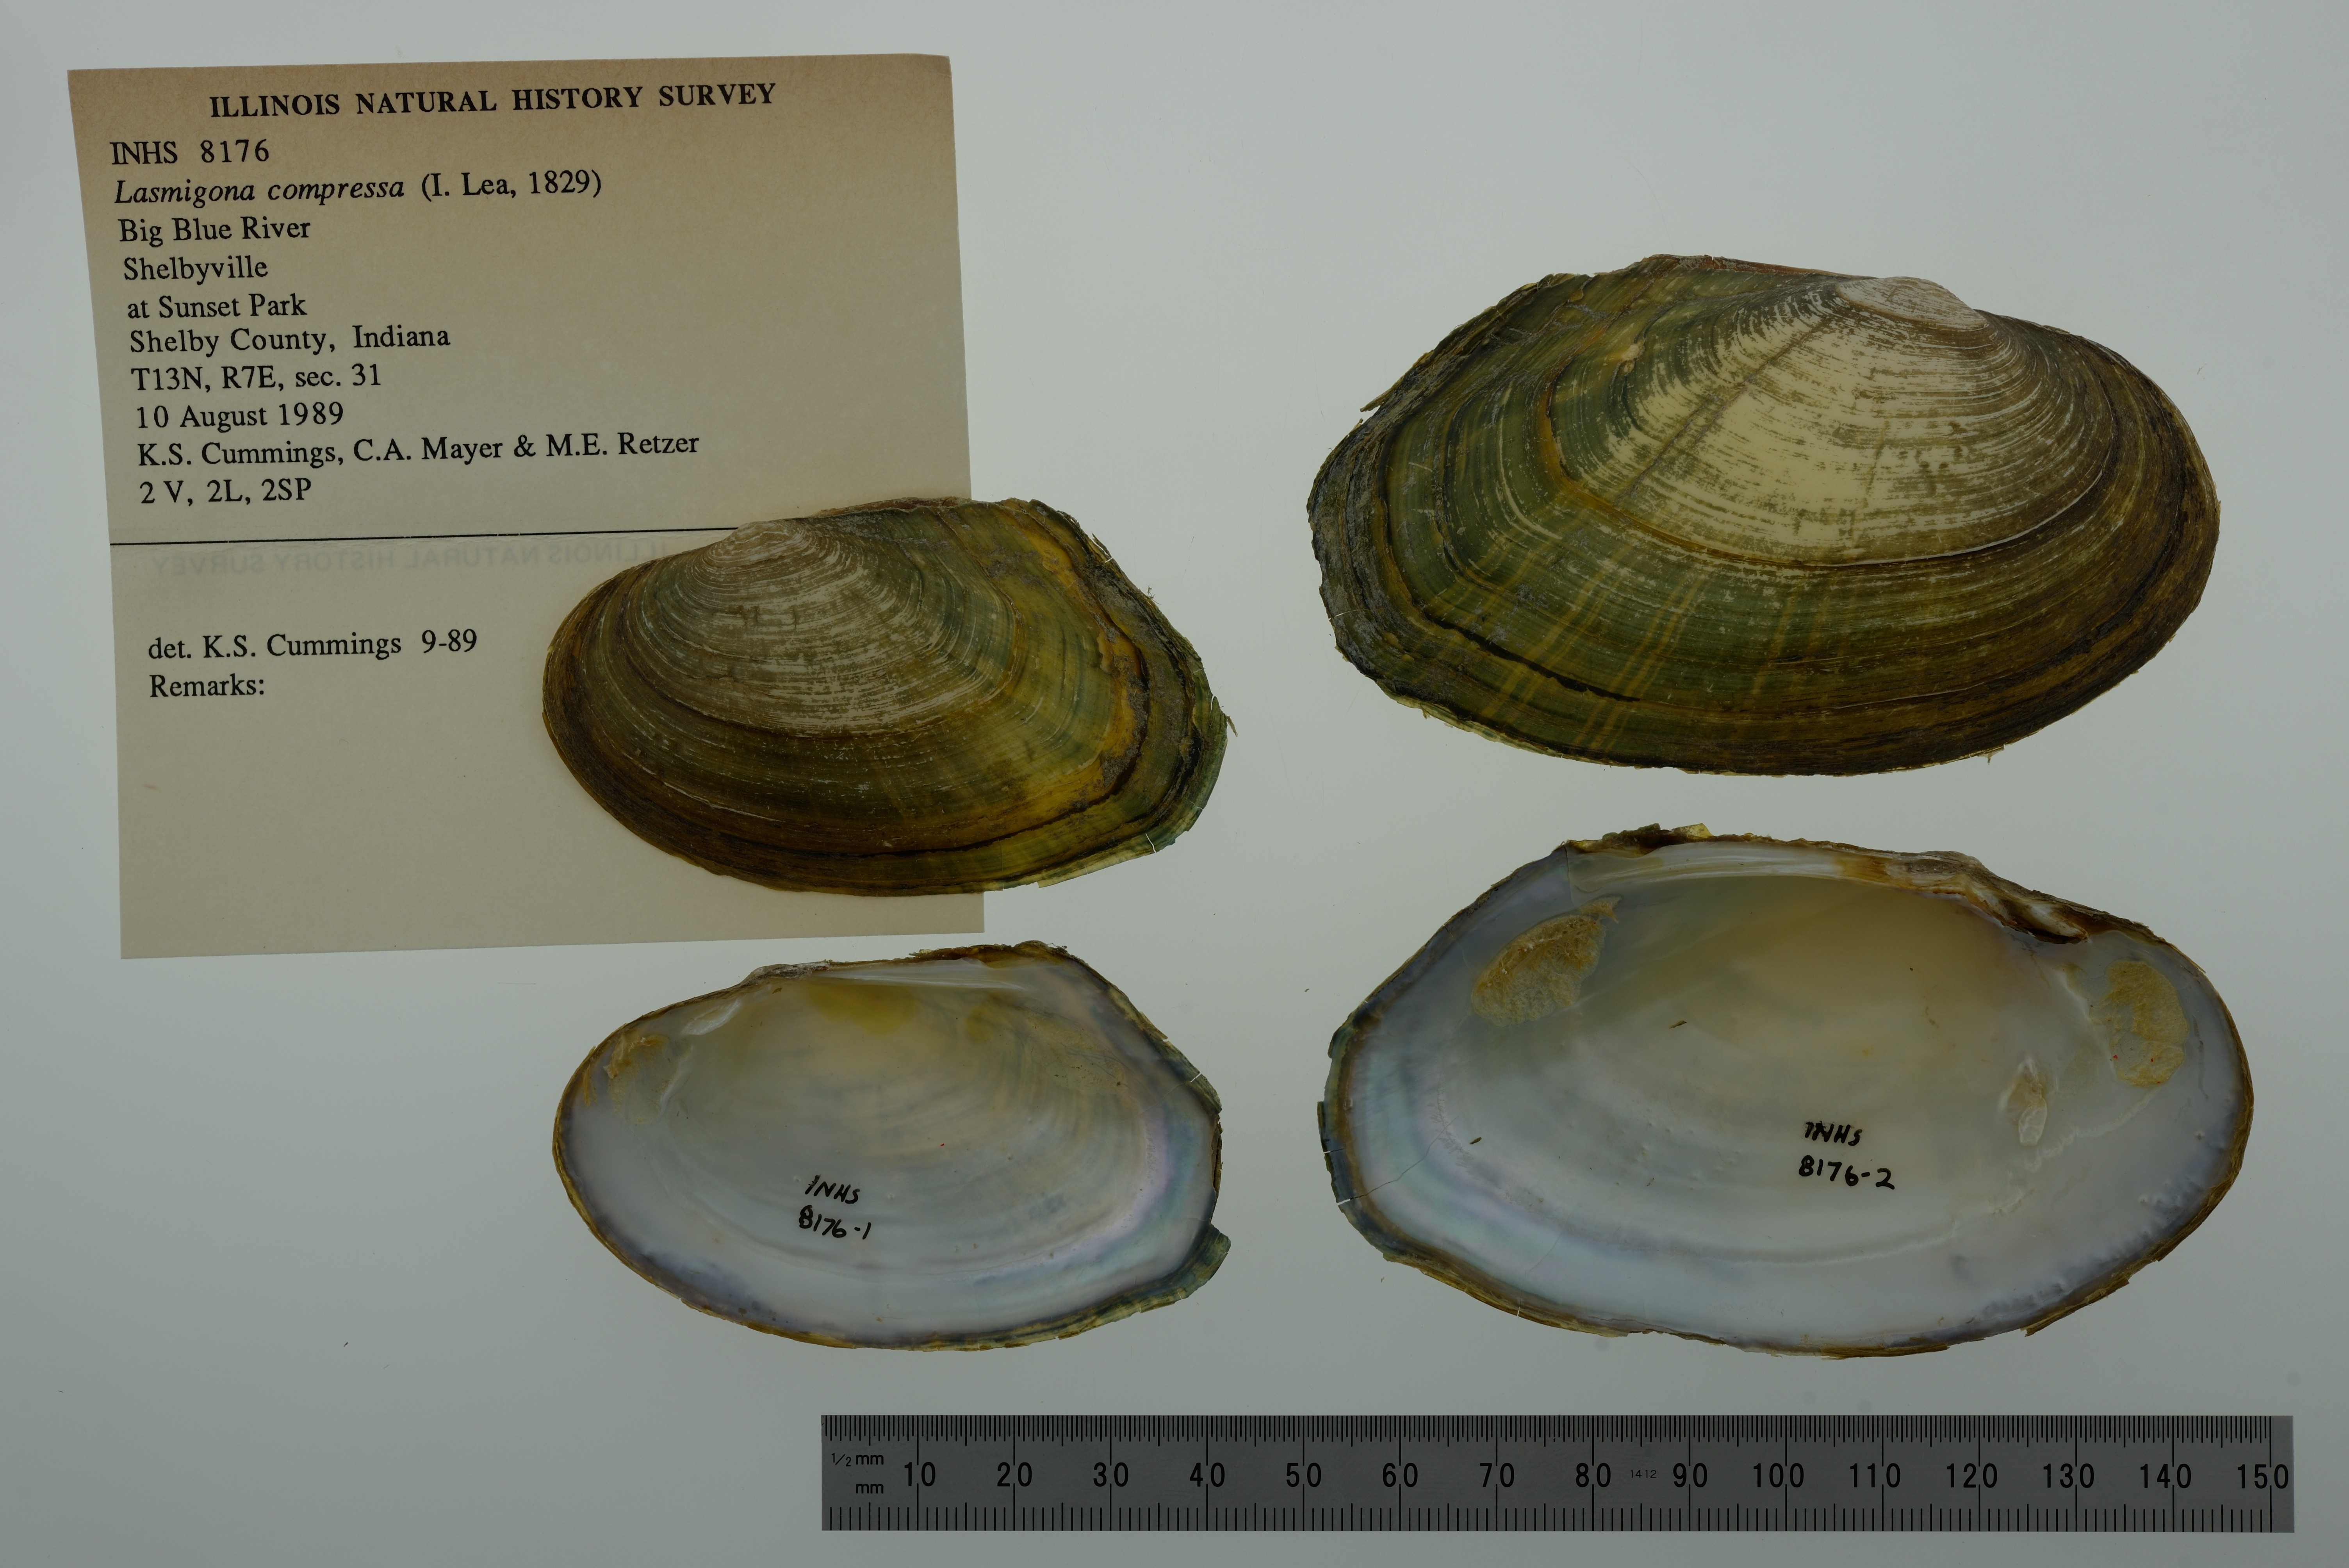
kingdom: Animalia
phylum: Mollusca
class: Bivalvia
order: Unionida
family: Unionidae
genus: Lasmigona
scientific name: Lasmigona compressa
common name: Creek heelsplitter
